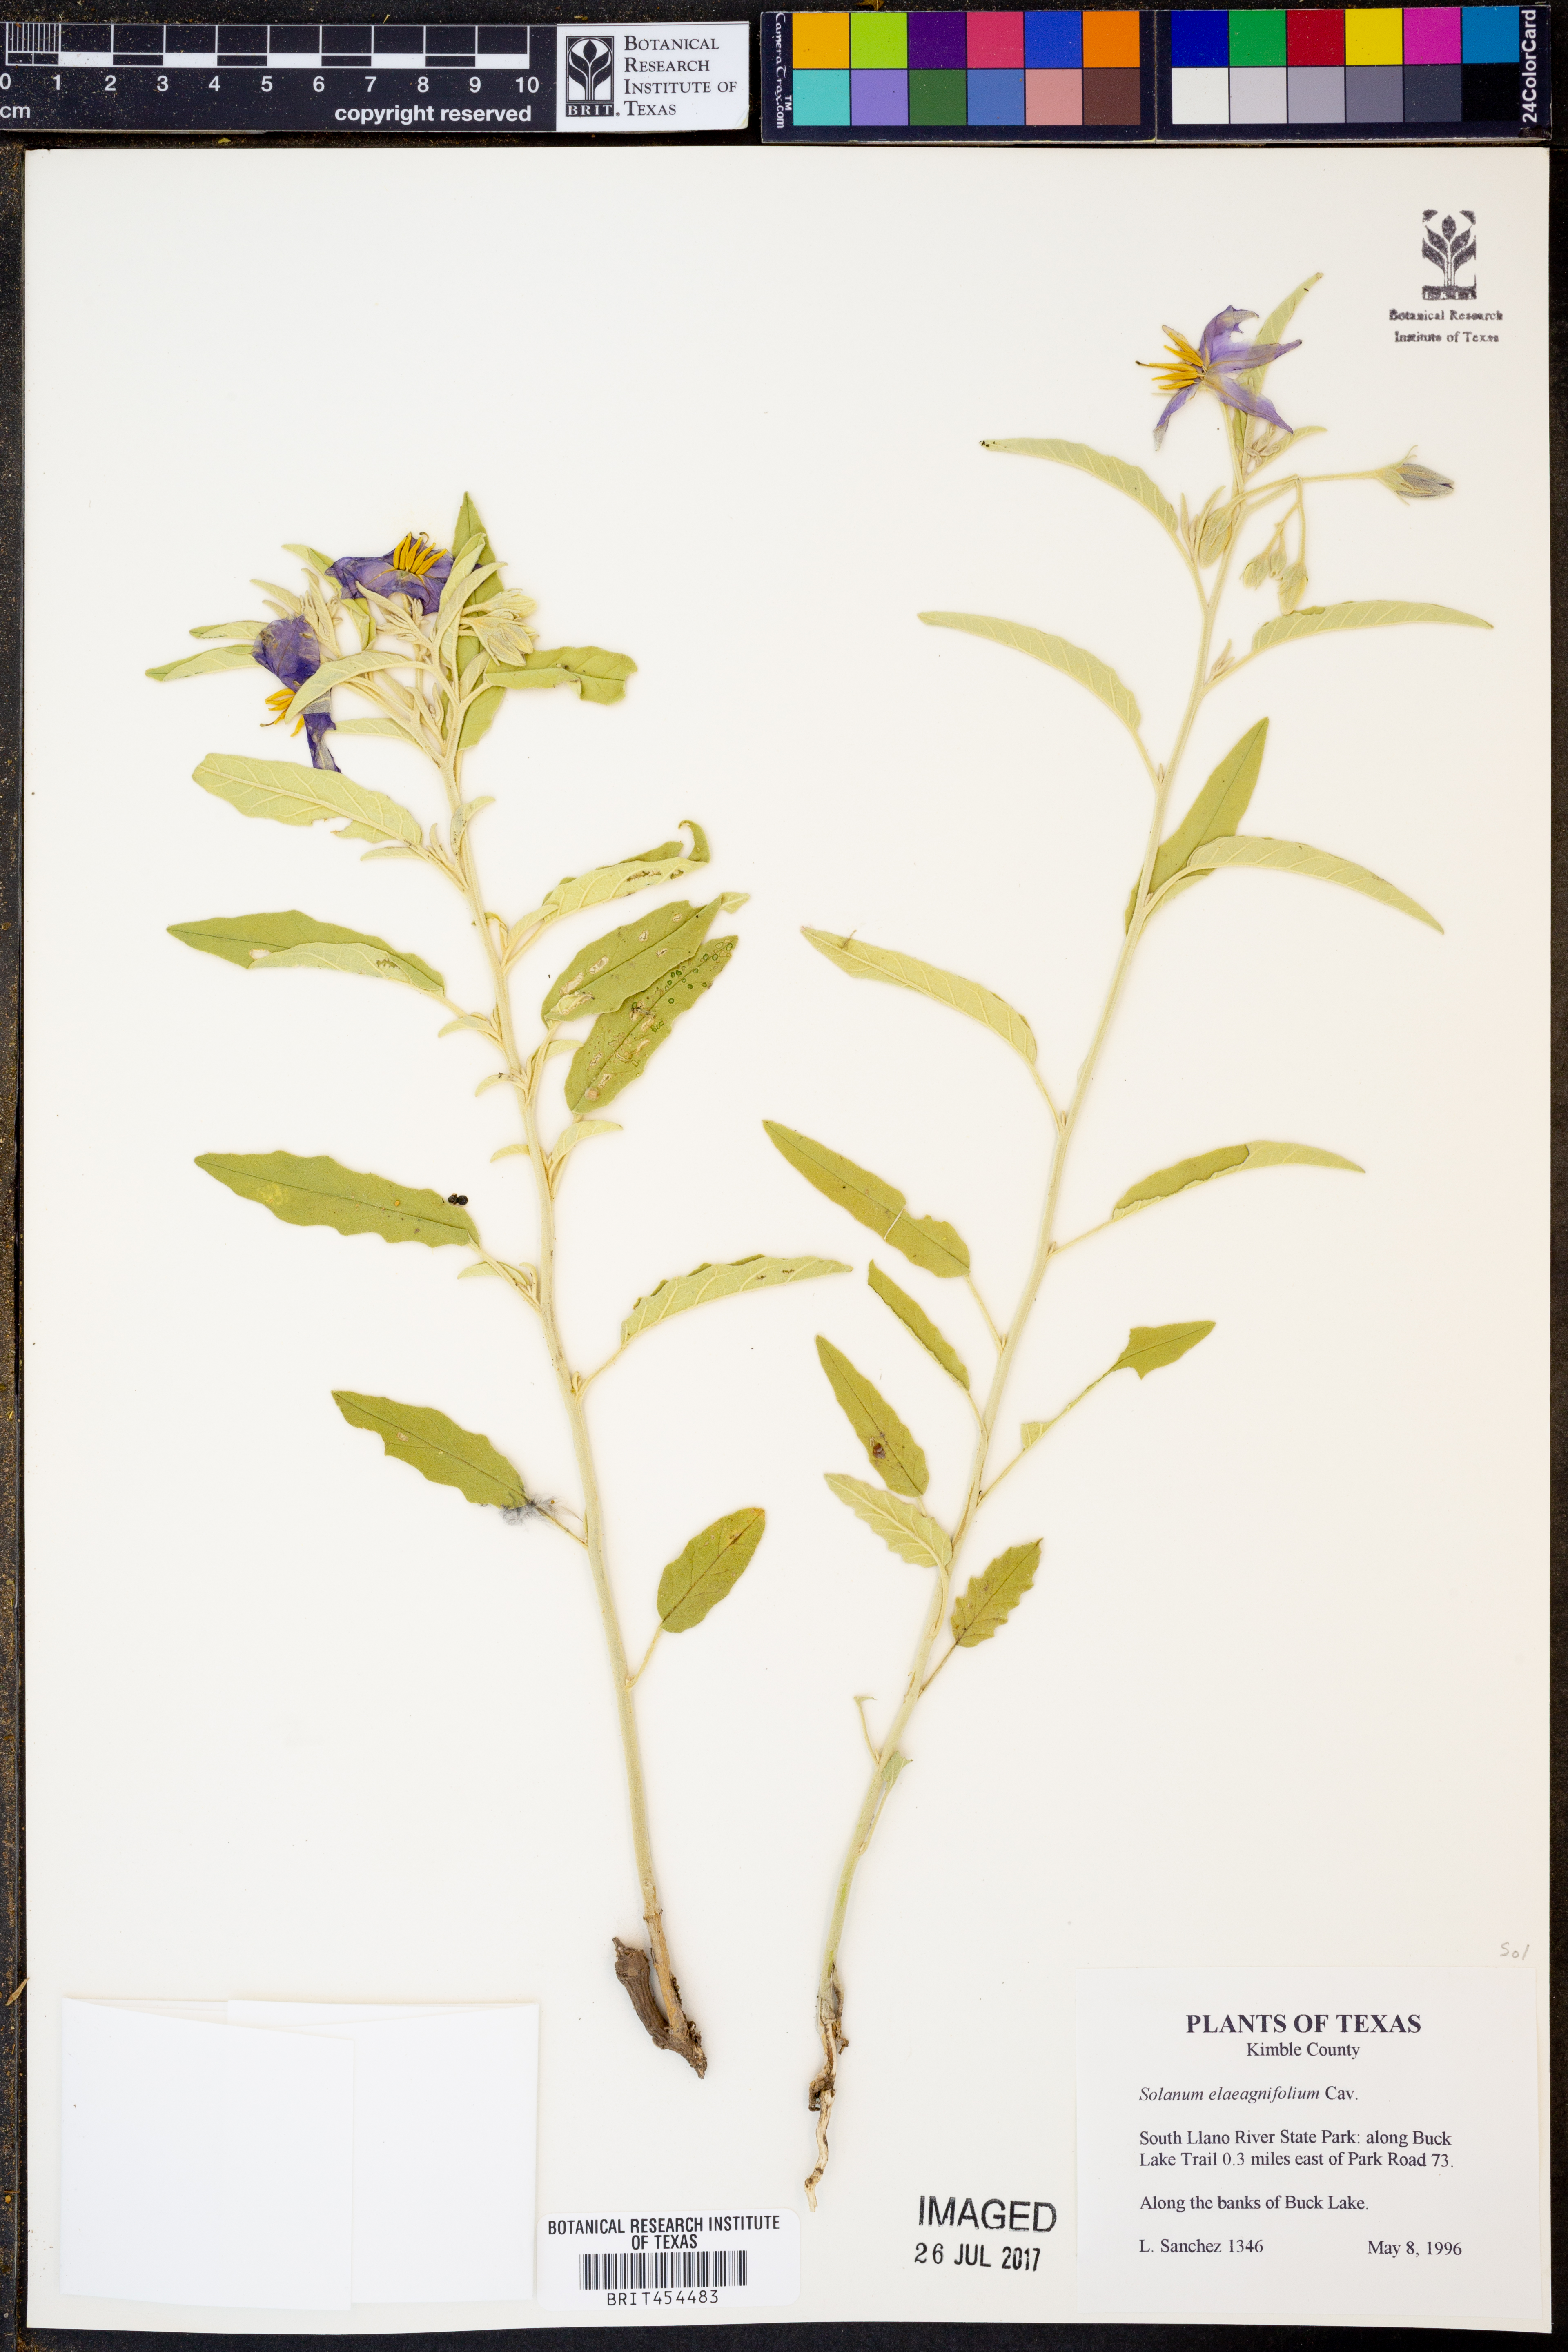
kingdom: Plantae
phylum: Tracheophyta
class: Magnoliopsida
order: Solanales
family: Solanaceae
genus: Solanum
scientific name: Solanum elaeagnifolium
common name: Silverleaf nightshade
